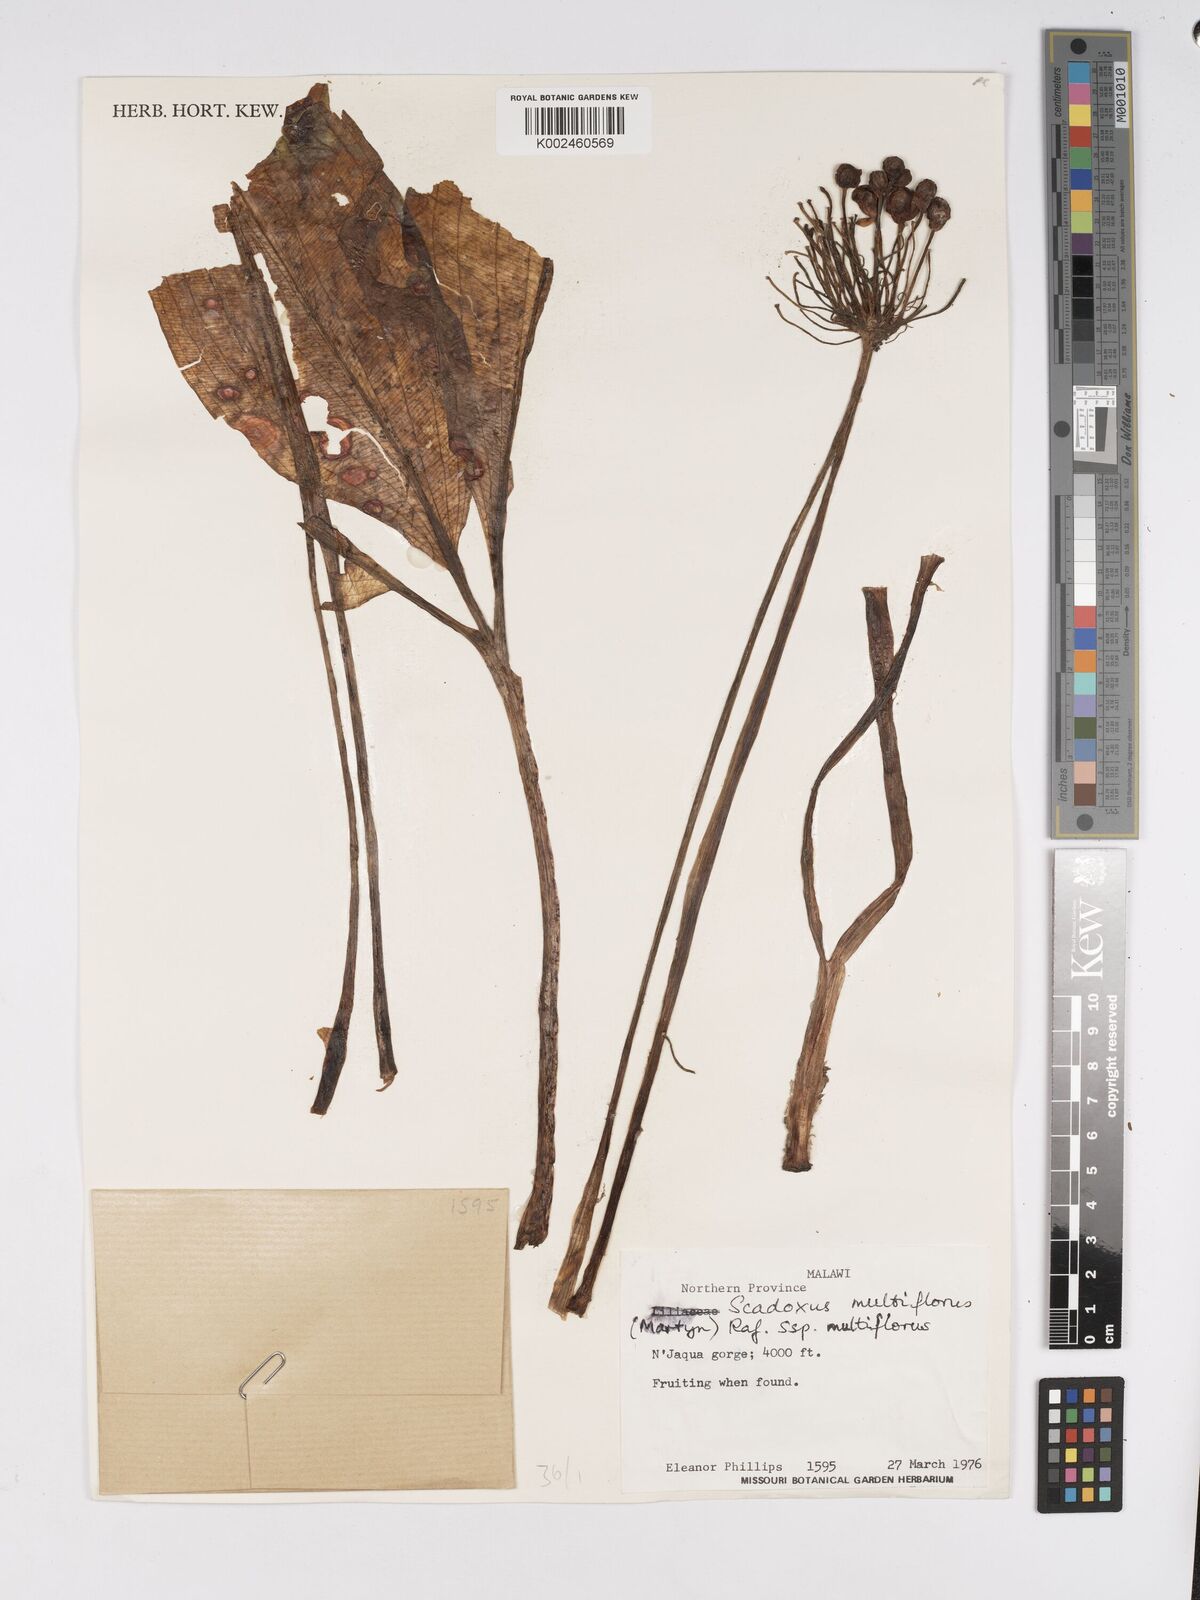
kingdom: Plantae
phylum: Tracheophyta
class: Liliopsida
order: Asparagales
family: Amaryllidaceae
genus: Scadoxus
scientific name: Scadoxus multiflorus
